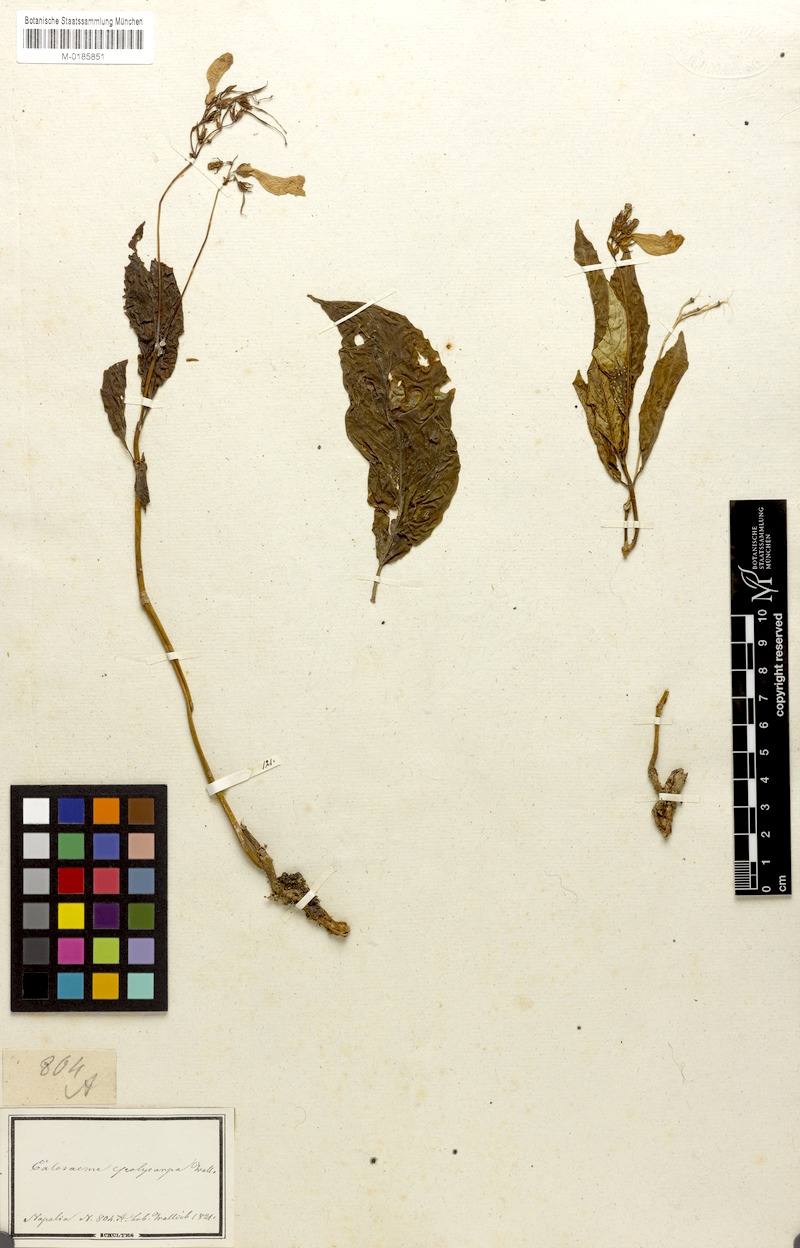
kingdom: Plantae
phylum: Tracheophyta
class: Magnoliopsida
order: Lamiales
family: Gesneriaceae
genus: Lysionotus
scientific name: Lysionotus serratus
